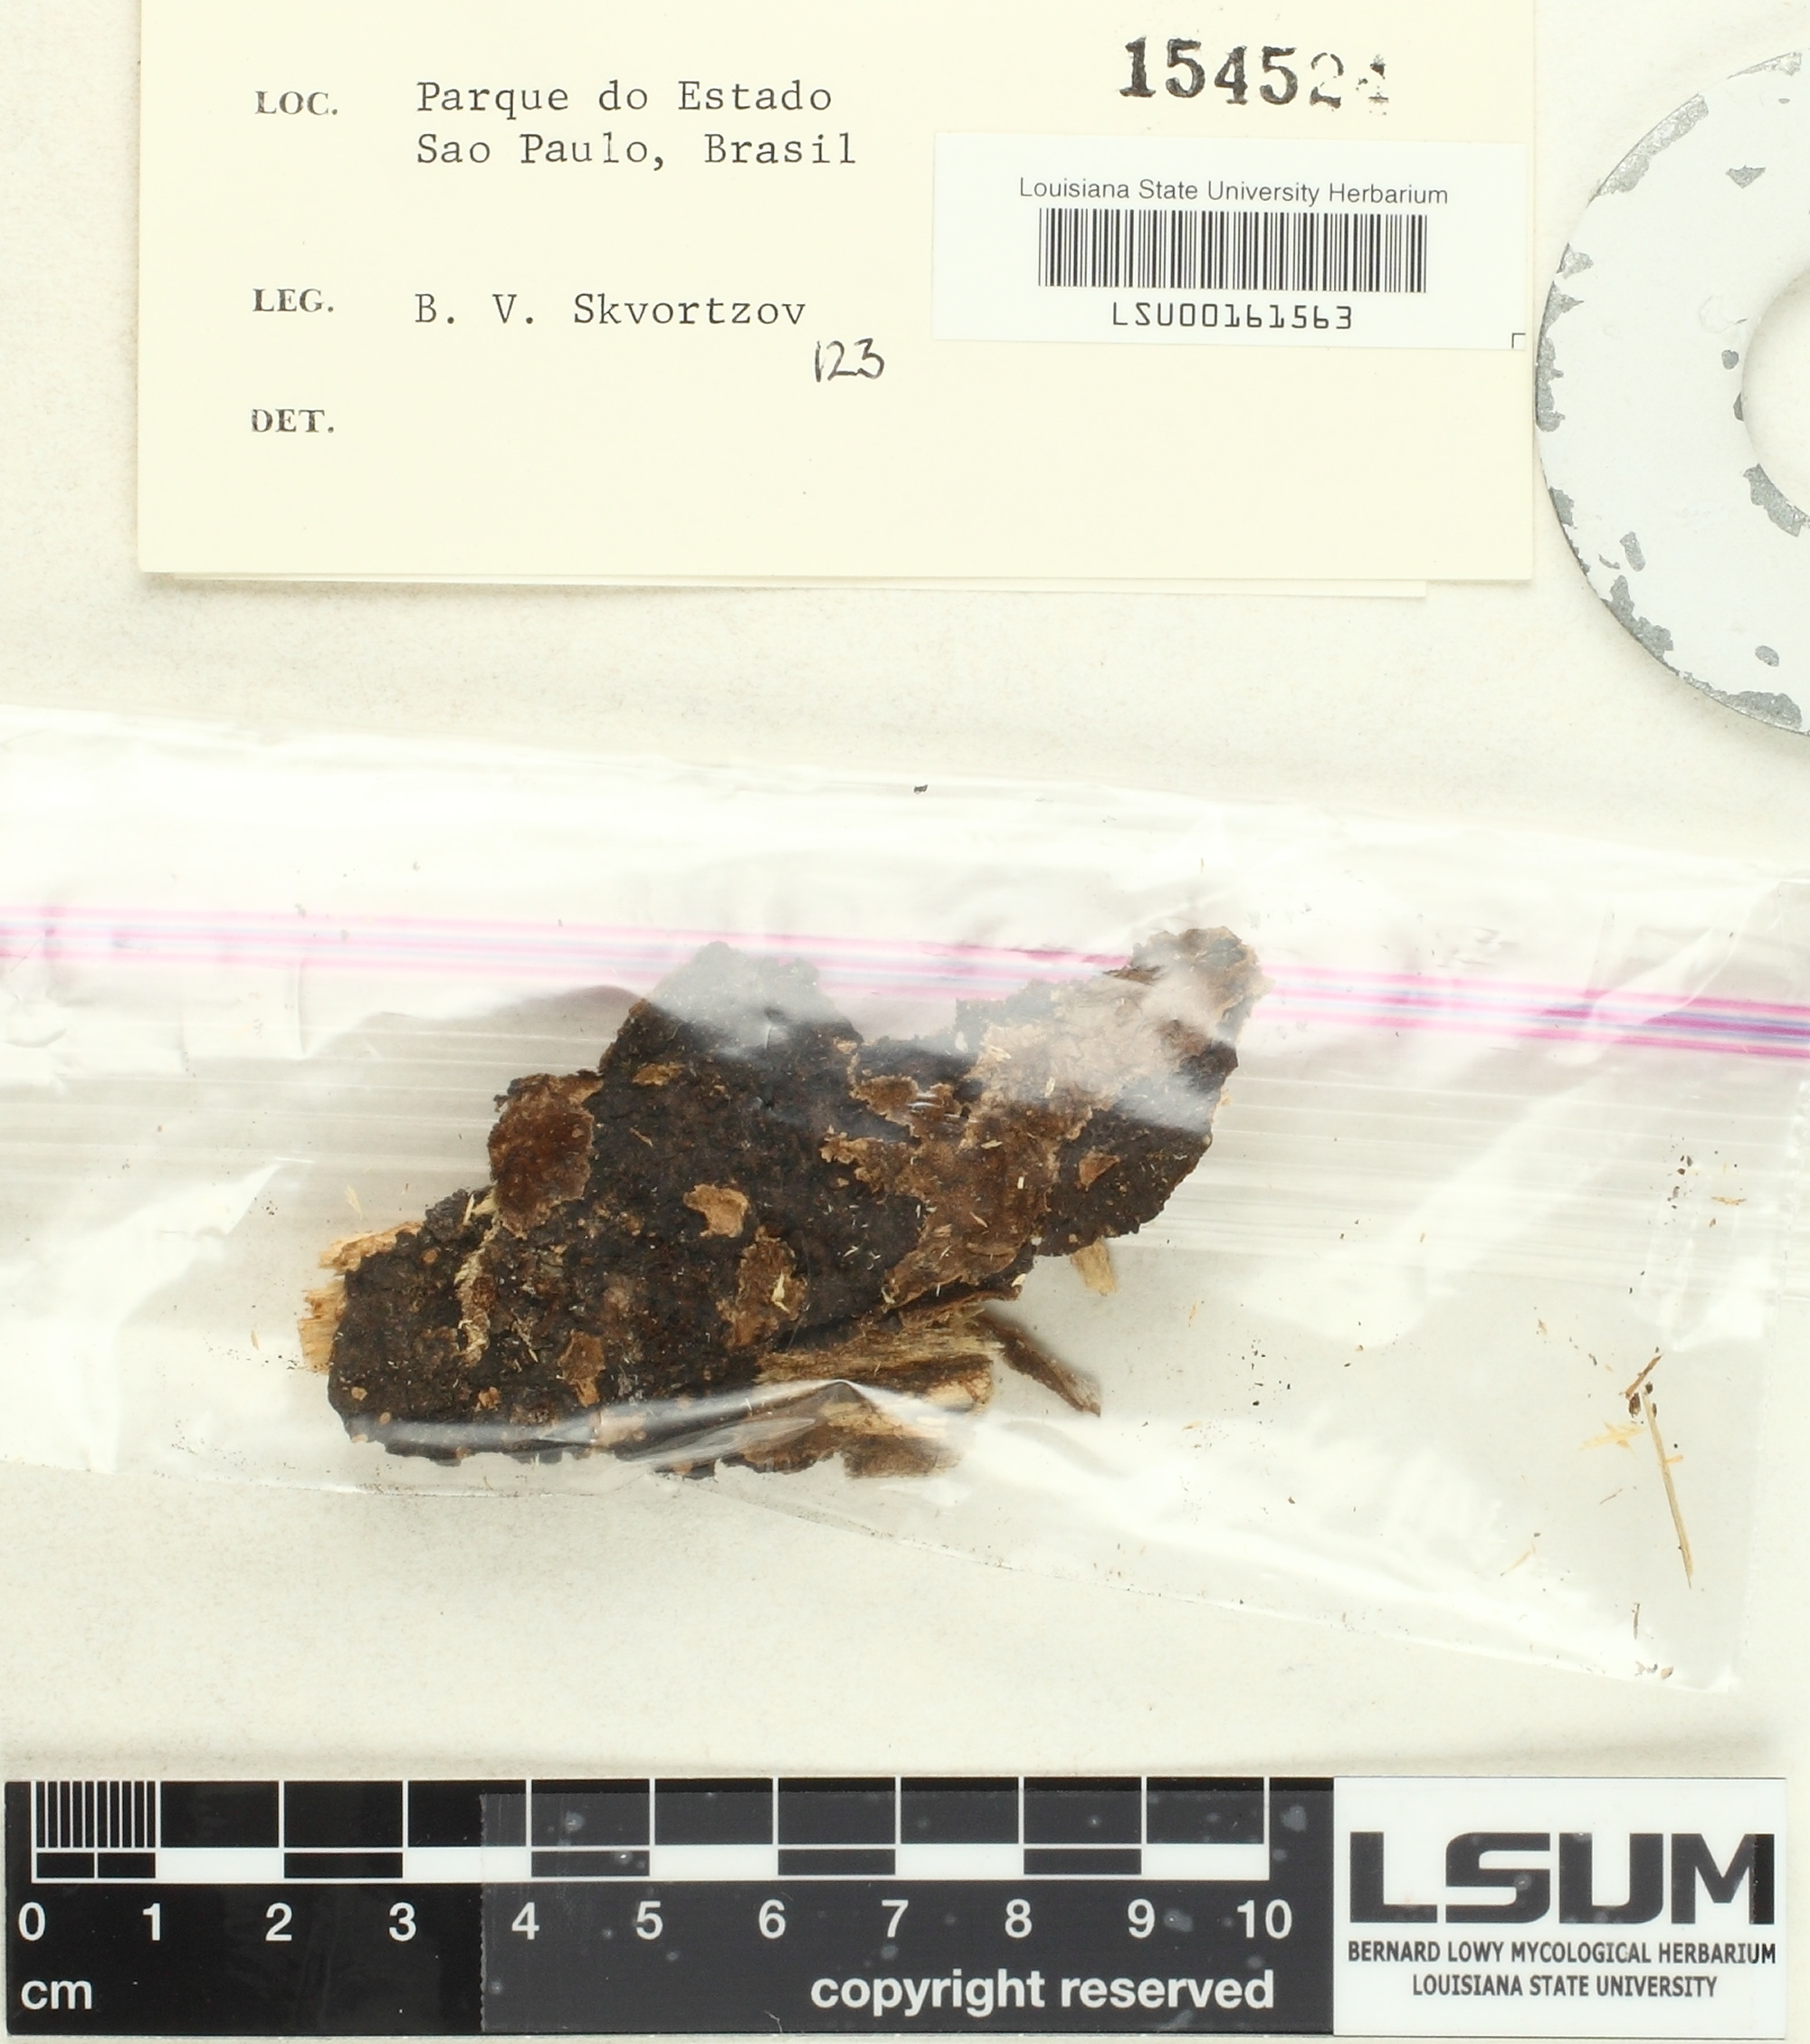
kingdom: Fungi
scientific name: Fungi
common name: Fungi
